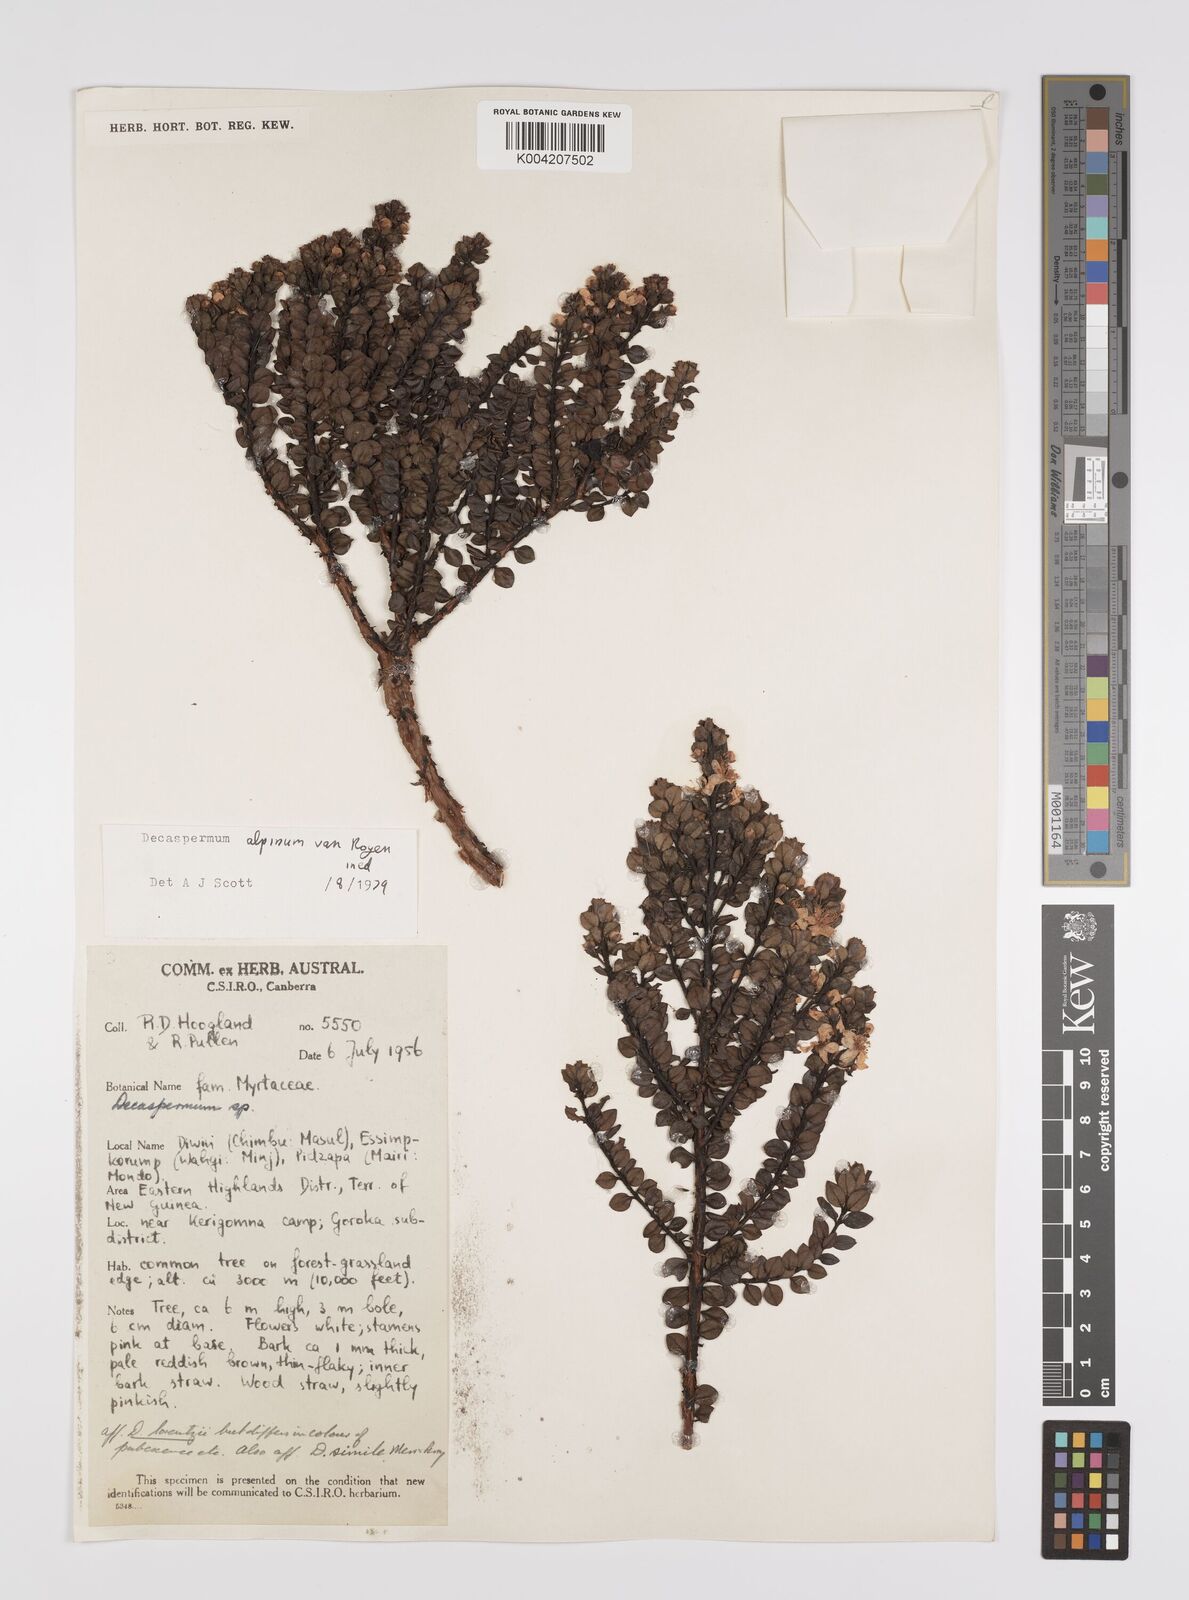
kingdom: Plantae
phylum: Tracheophyta
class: Magnoliopsida
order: Myrtales
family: Myrtaceae
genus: Decaspermum
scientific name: Decaspermum alpinum
